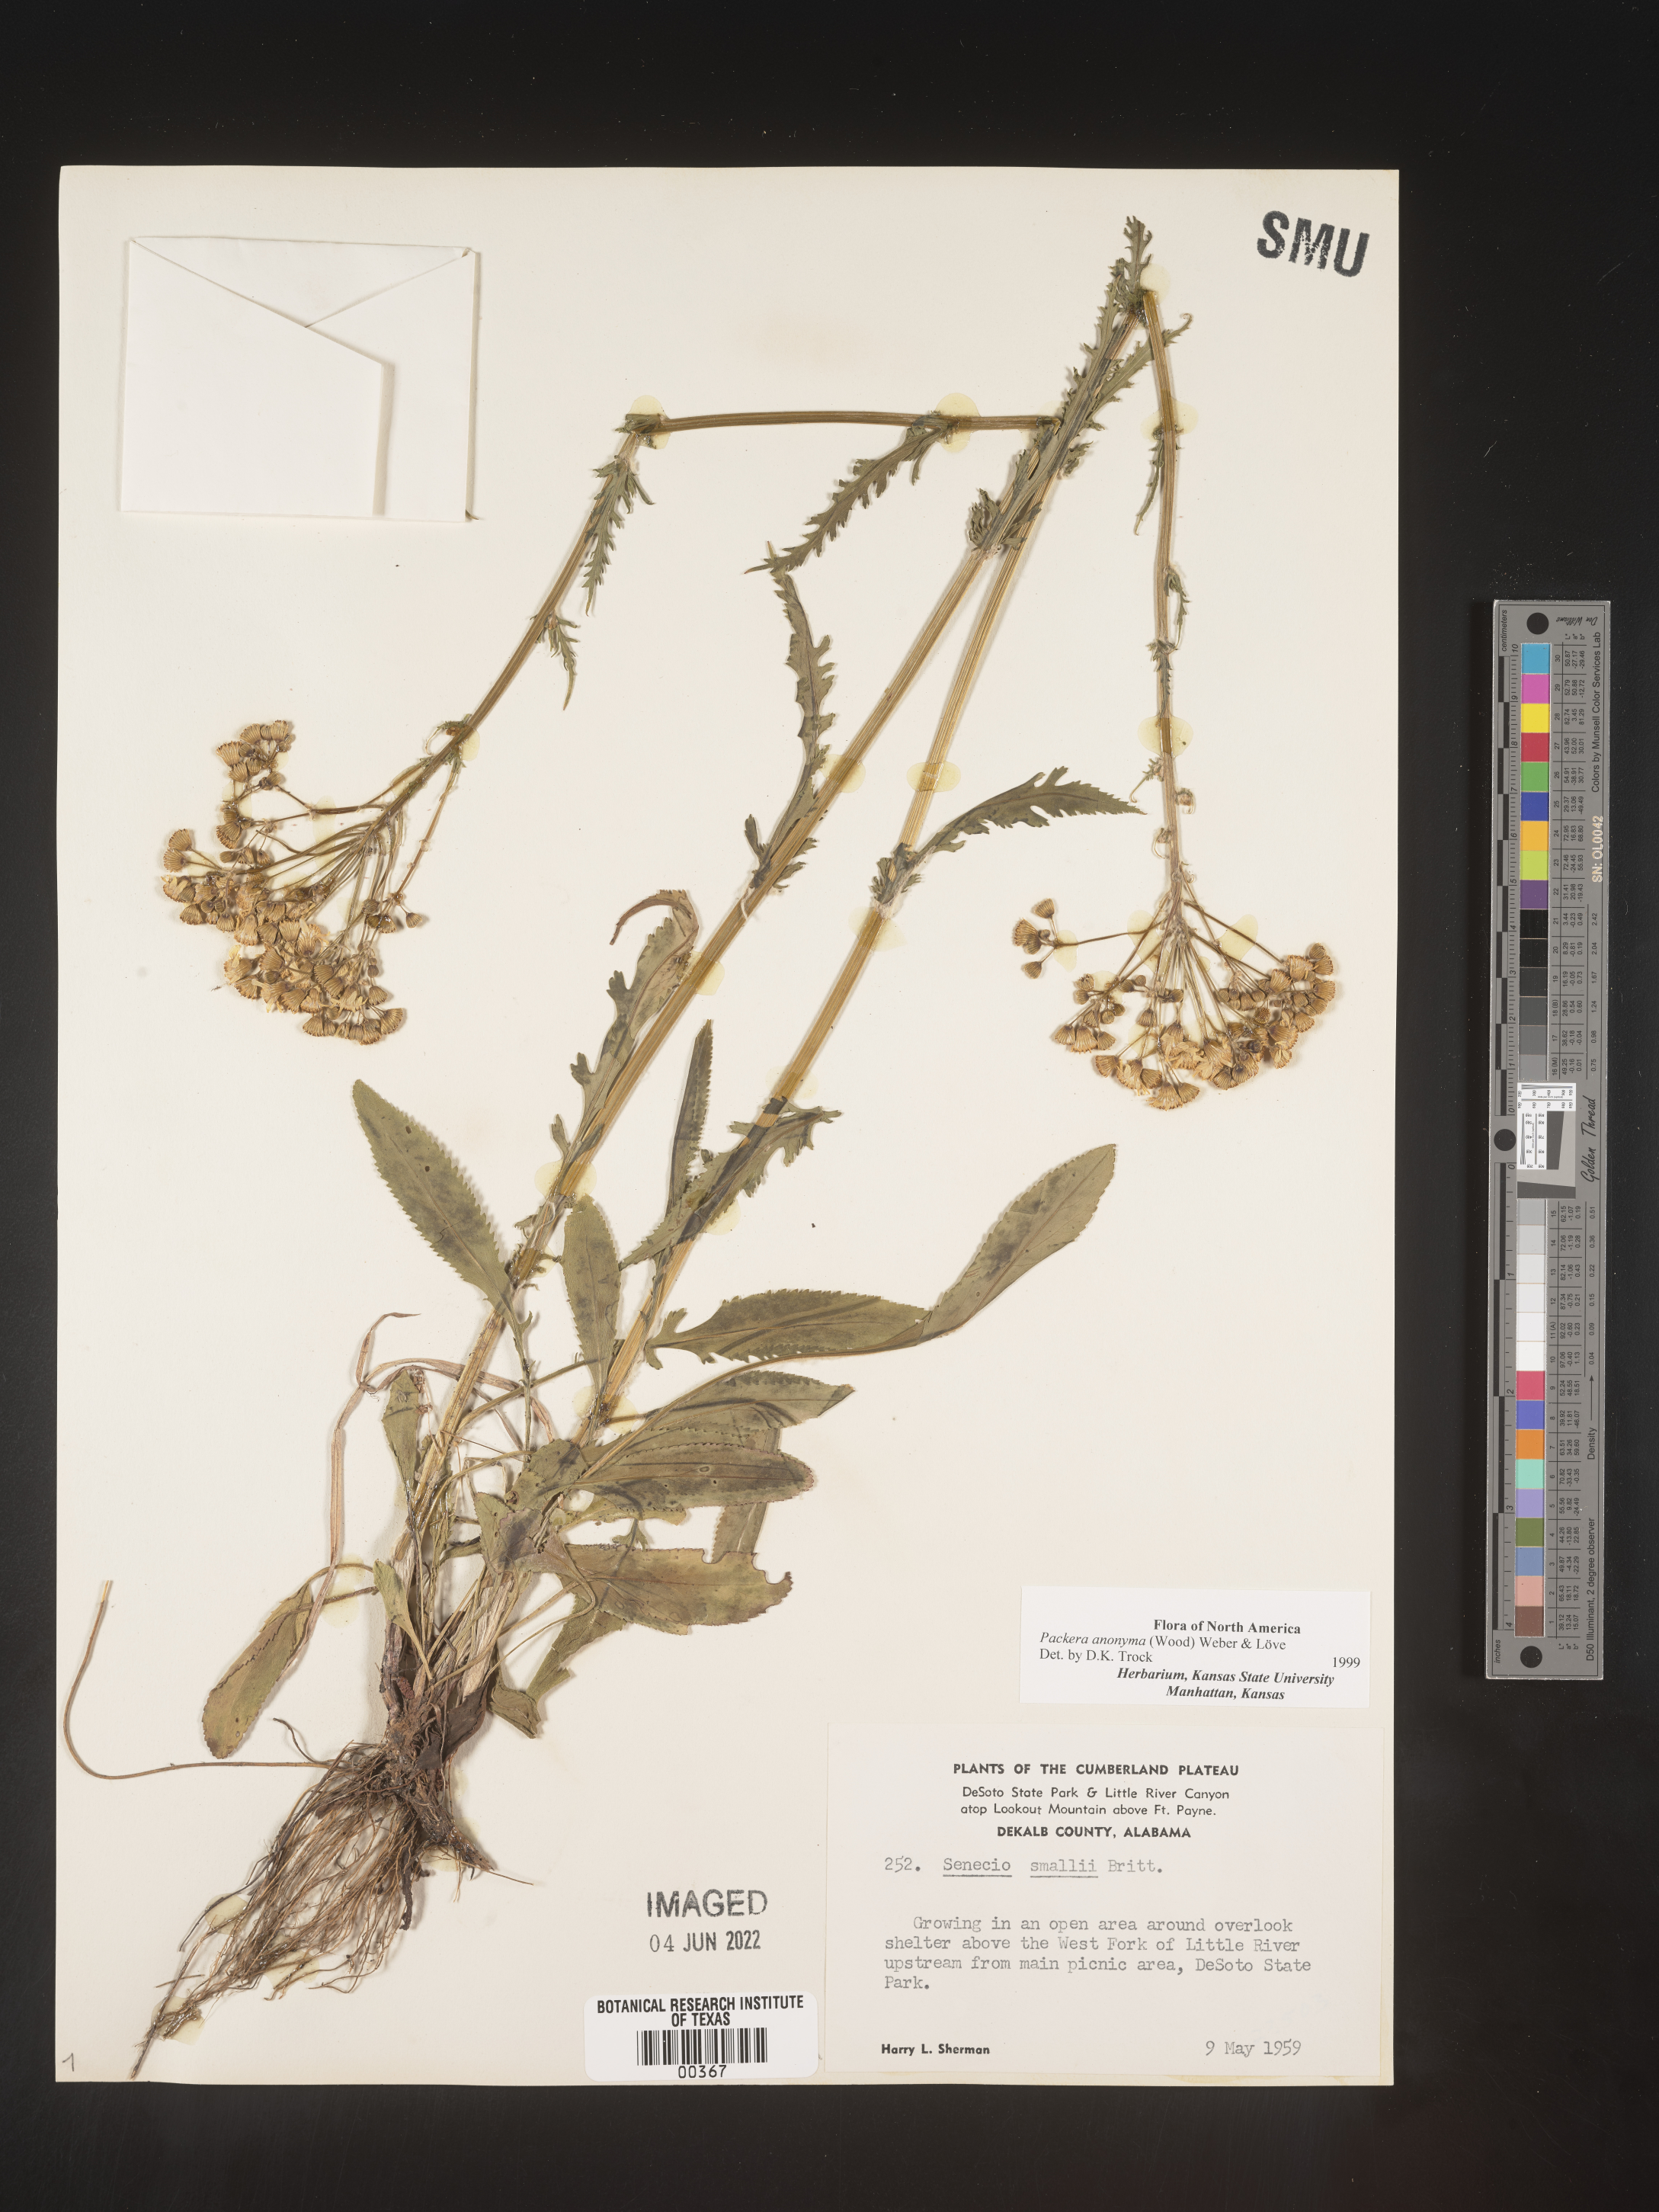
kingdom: Plantae
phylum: Tracheophyta
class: Magnoliopsida
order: Asterales
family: Asteraceae
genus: Packera
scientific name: Packera anonyma
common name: Small ragwort
